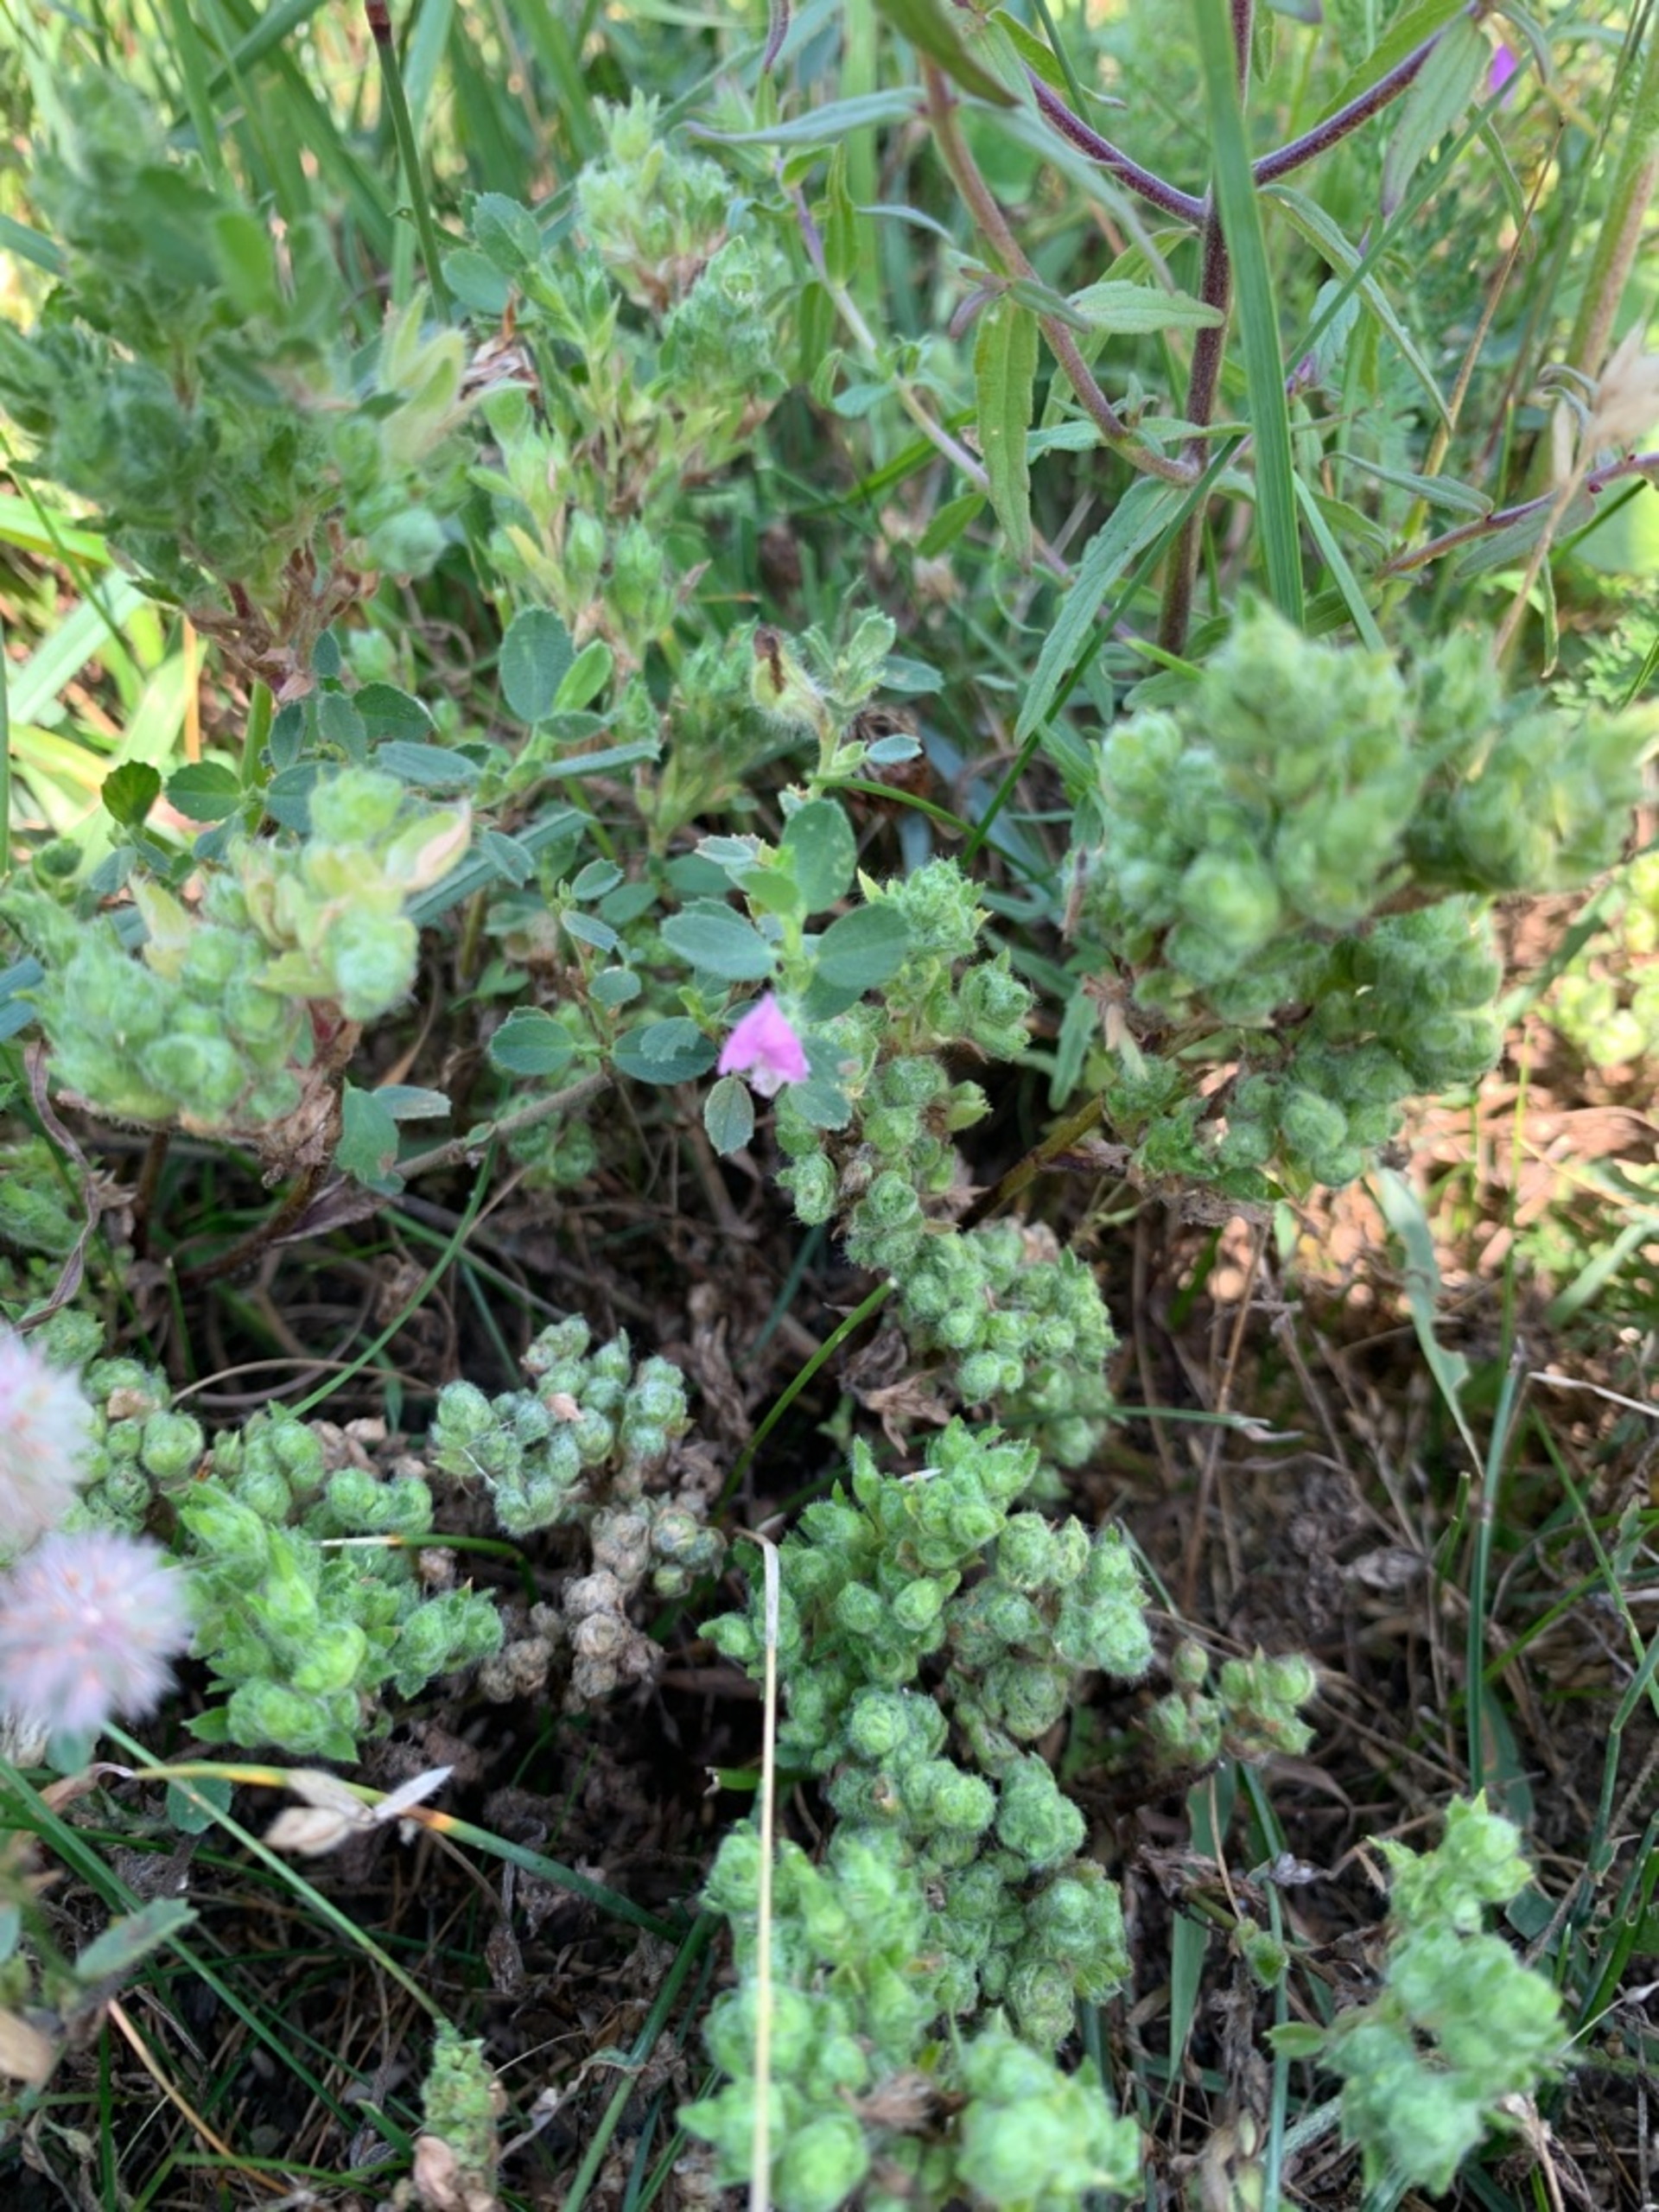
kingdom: Animalia
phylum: Arthropoda
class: Arachnida
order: Trombidiformes
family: Eriophyidae
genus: Aceria
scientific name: Aceria ononidis
